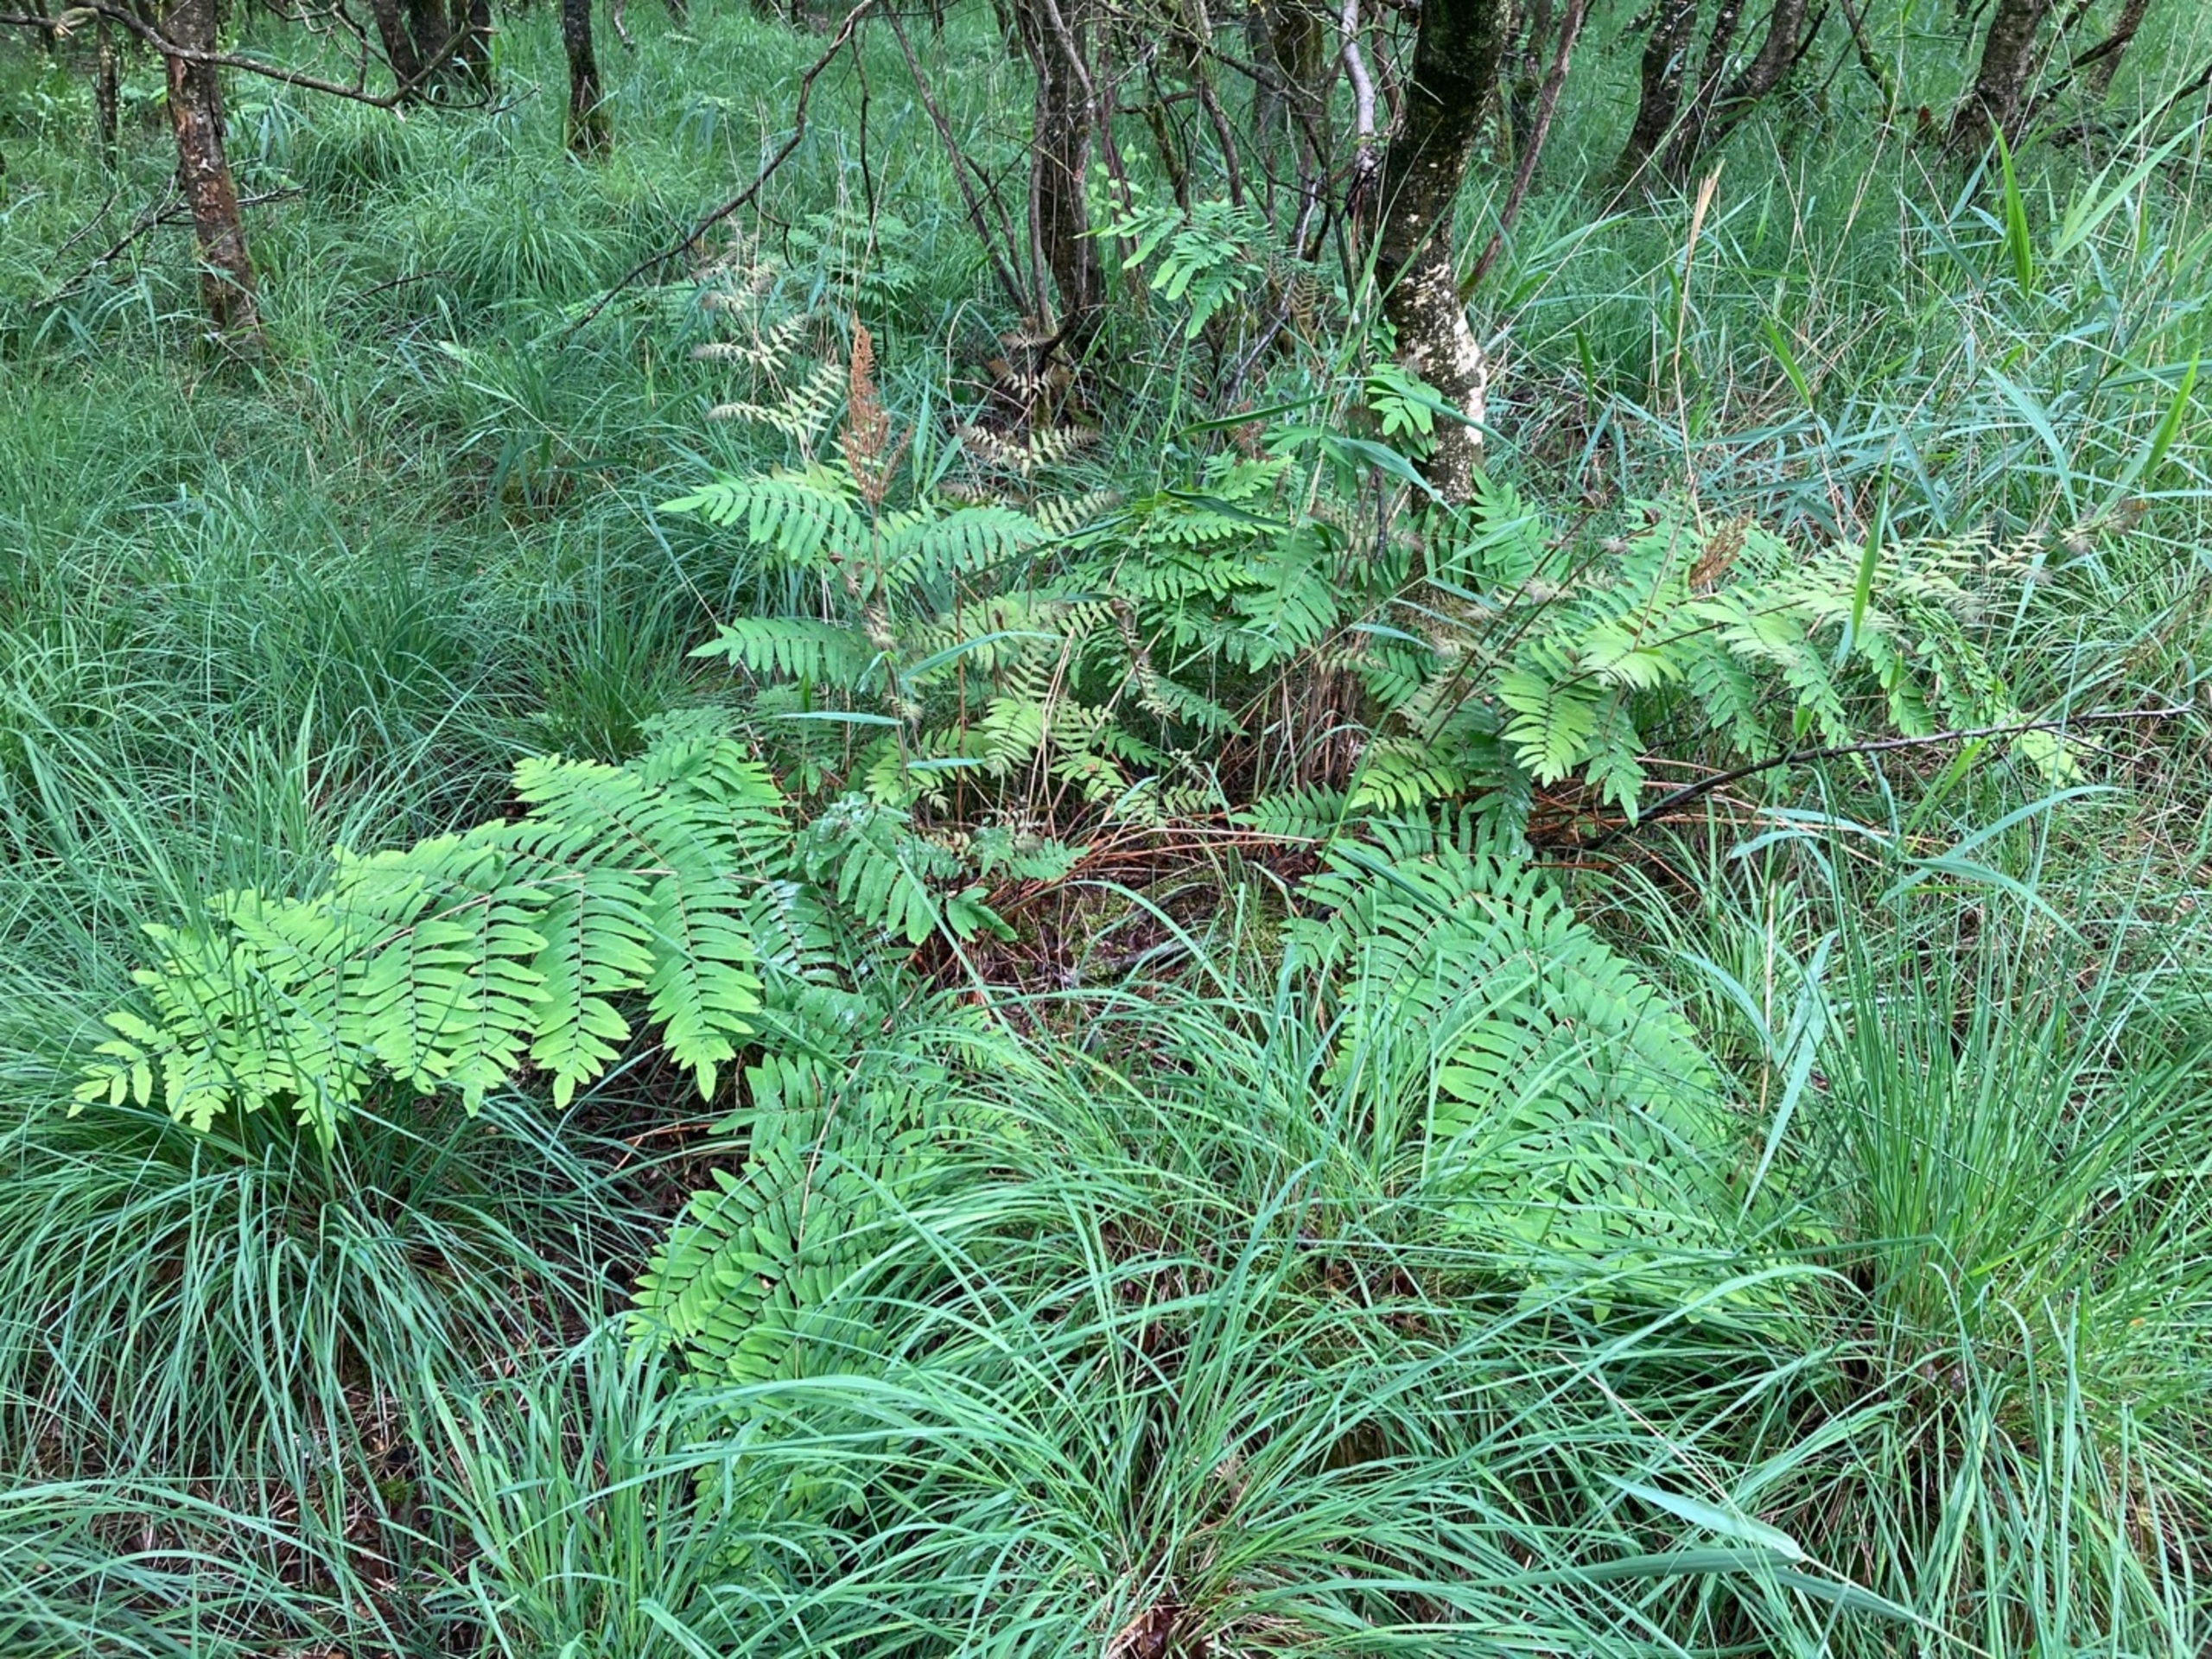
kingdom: Plantae
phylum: Tracheophyta
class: Polypodiopsida
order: Osmundales
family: Osmundaceae
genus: Osmunda
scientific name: Osmunda regalis
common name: Kongebregne
